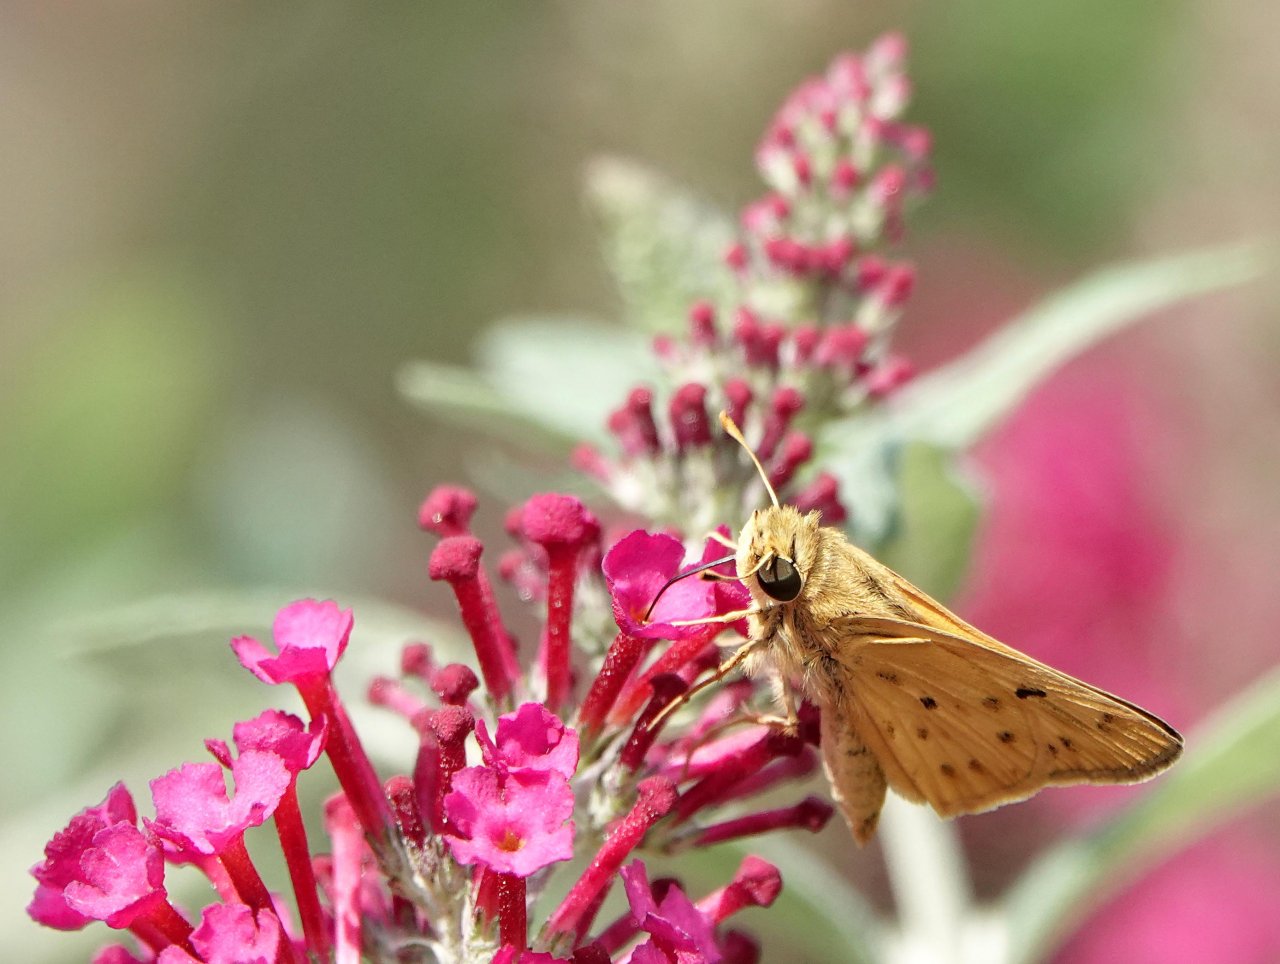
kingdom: Animalia
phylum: Arthropoda
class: Insecta
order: Lepidoptera
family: Hesperiidae
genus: Hylephila
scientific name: Hylephila phyleus
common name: Fiery Skipper
